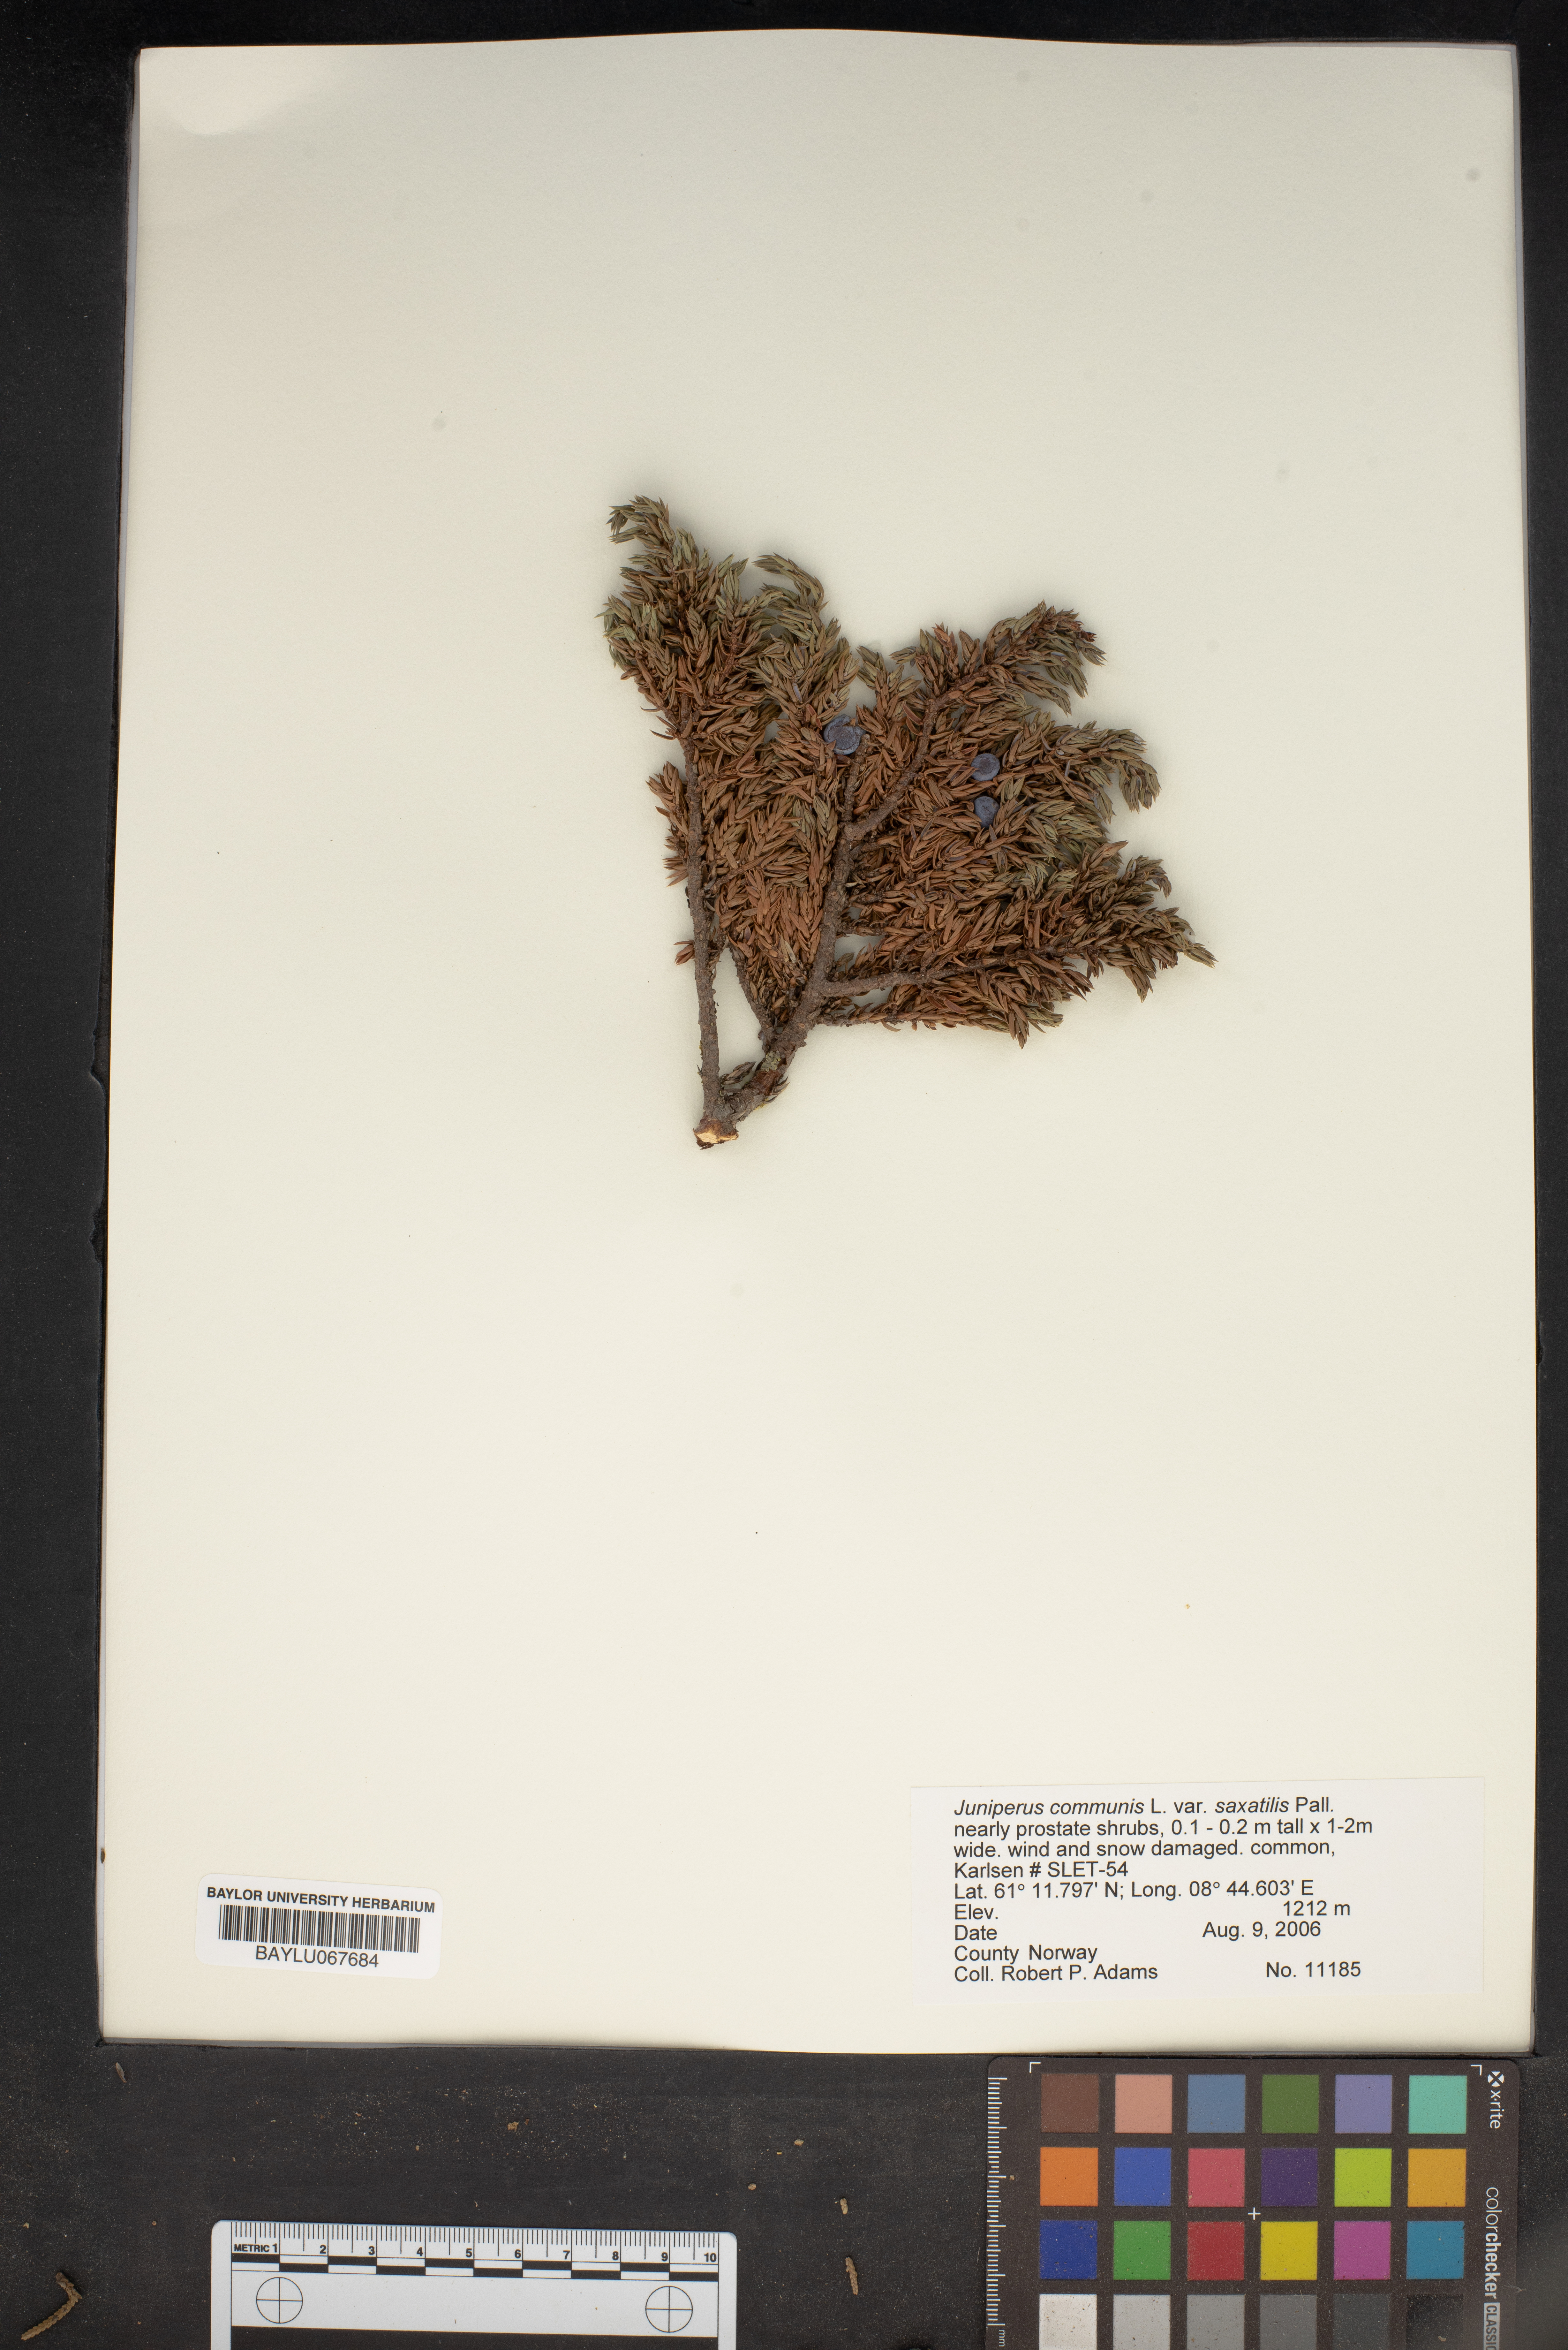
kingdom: Plantae
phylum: Tracheophyta
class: Pinopsida
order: Pinales
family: Cupressaceae
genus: Juniperus
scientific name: Juniperus communis
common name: Common juniper
